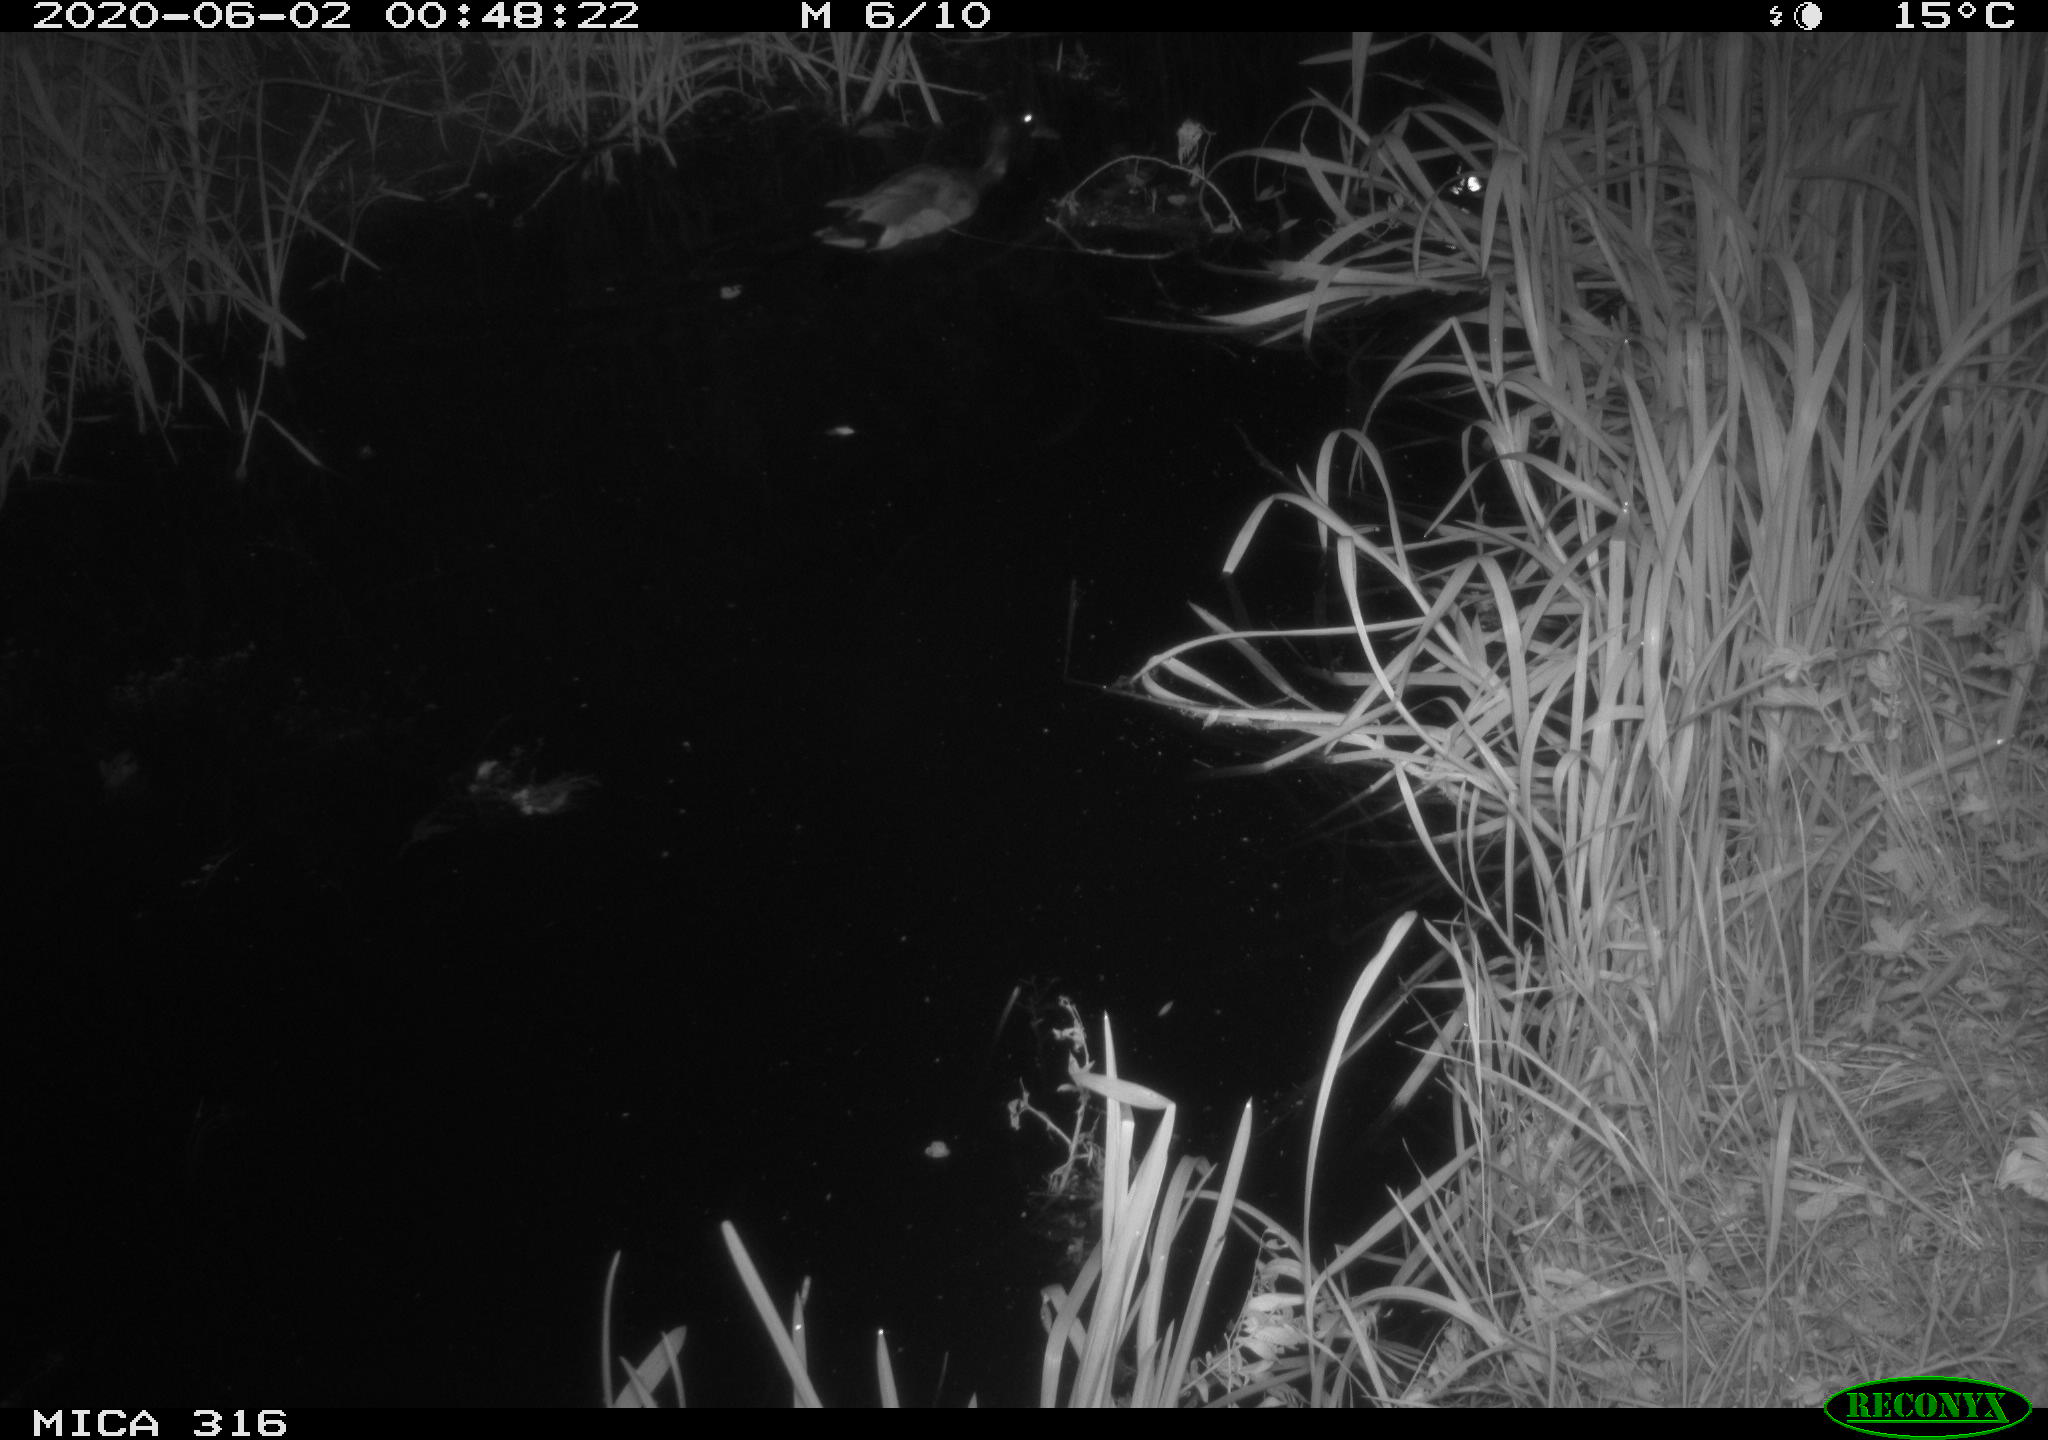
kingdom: Animalia
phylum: Chordata
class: Aves
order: Anseriformes
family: Anatidae
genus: Anas
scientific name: Anas platyrhynchos
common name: Mallard
